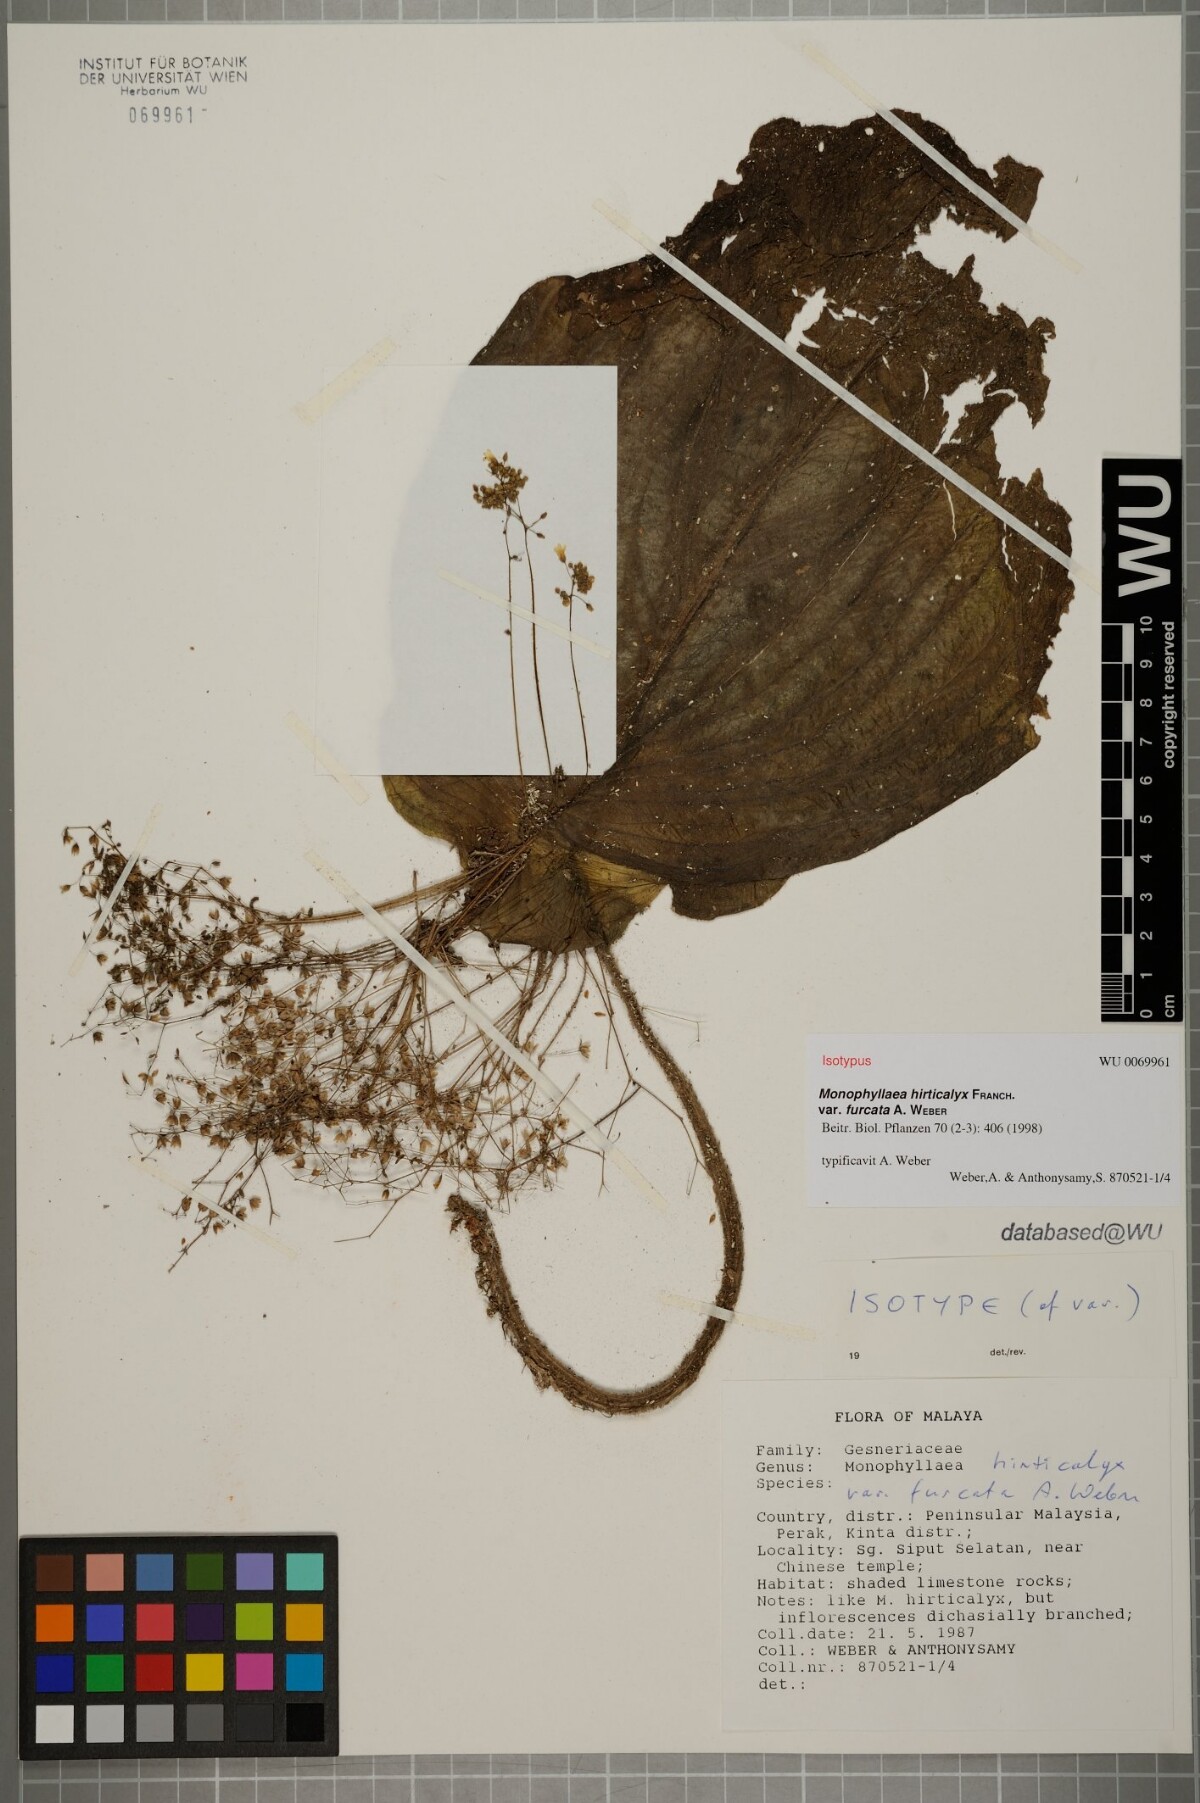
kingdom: Plantae
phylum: Tracheophyta
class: Magnoliopsida
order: Lamiales
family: Gesneriaceae
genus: Monophyllaea
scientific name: Monophyllaea hirticalyx
